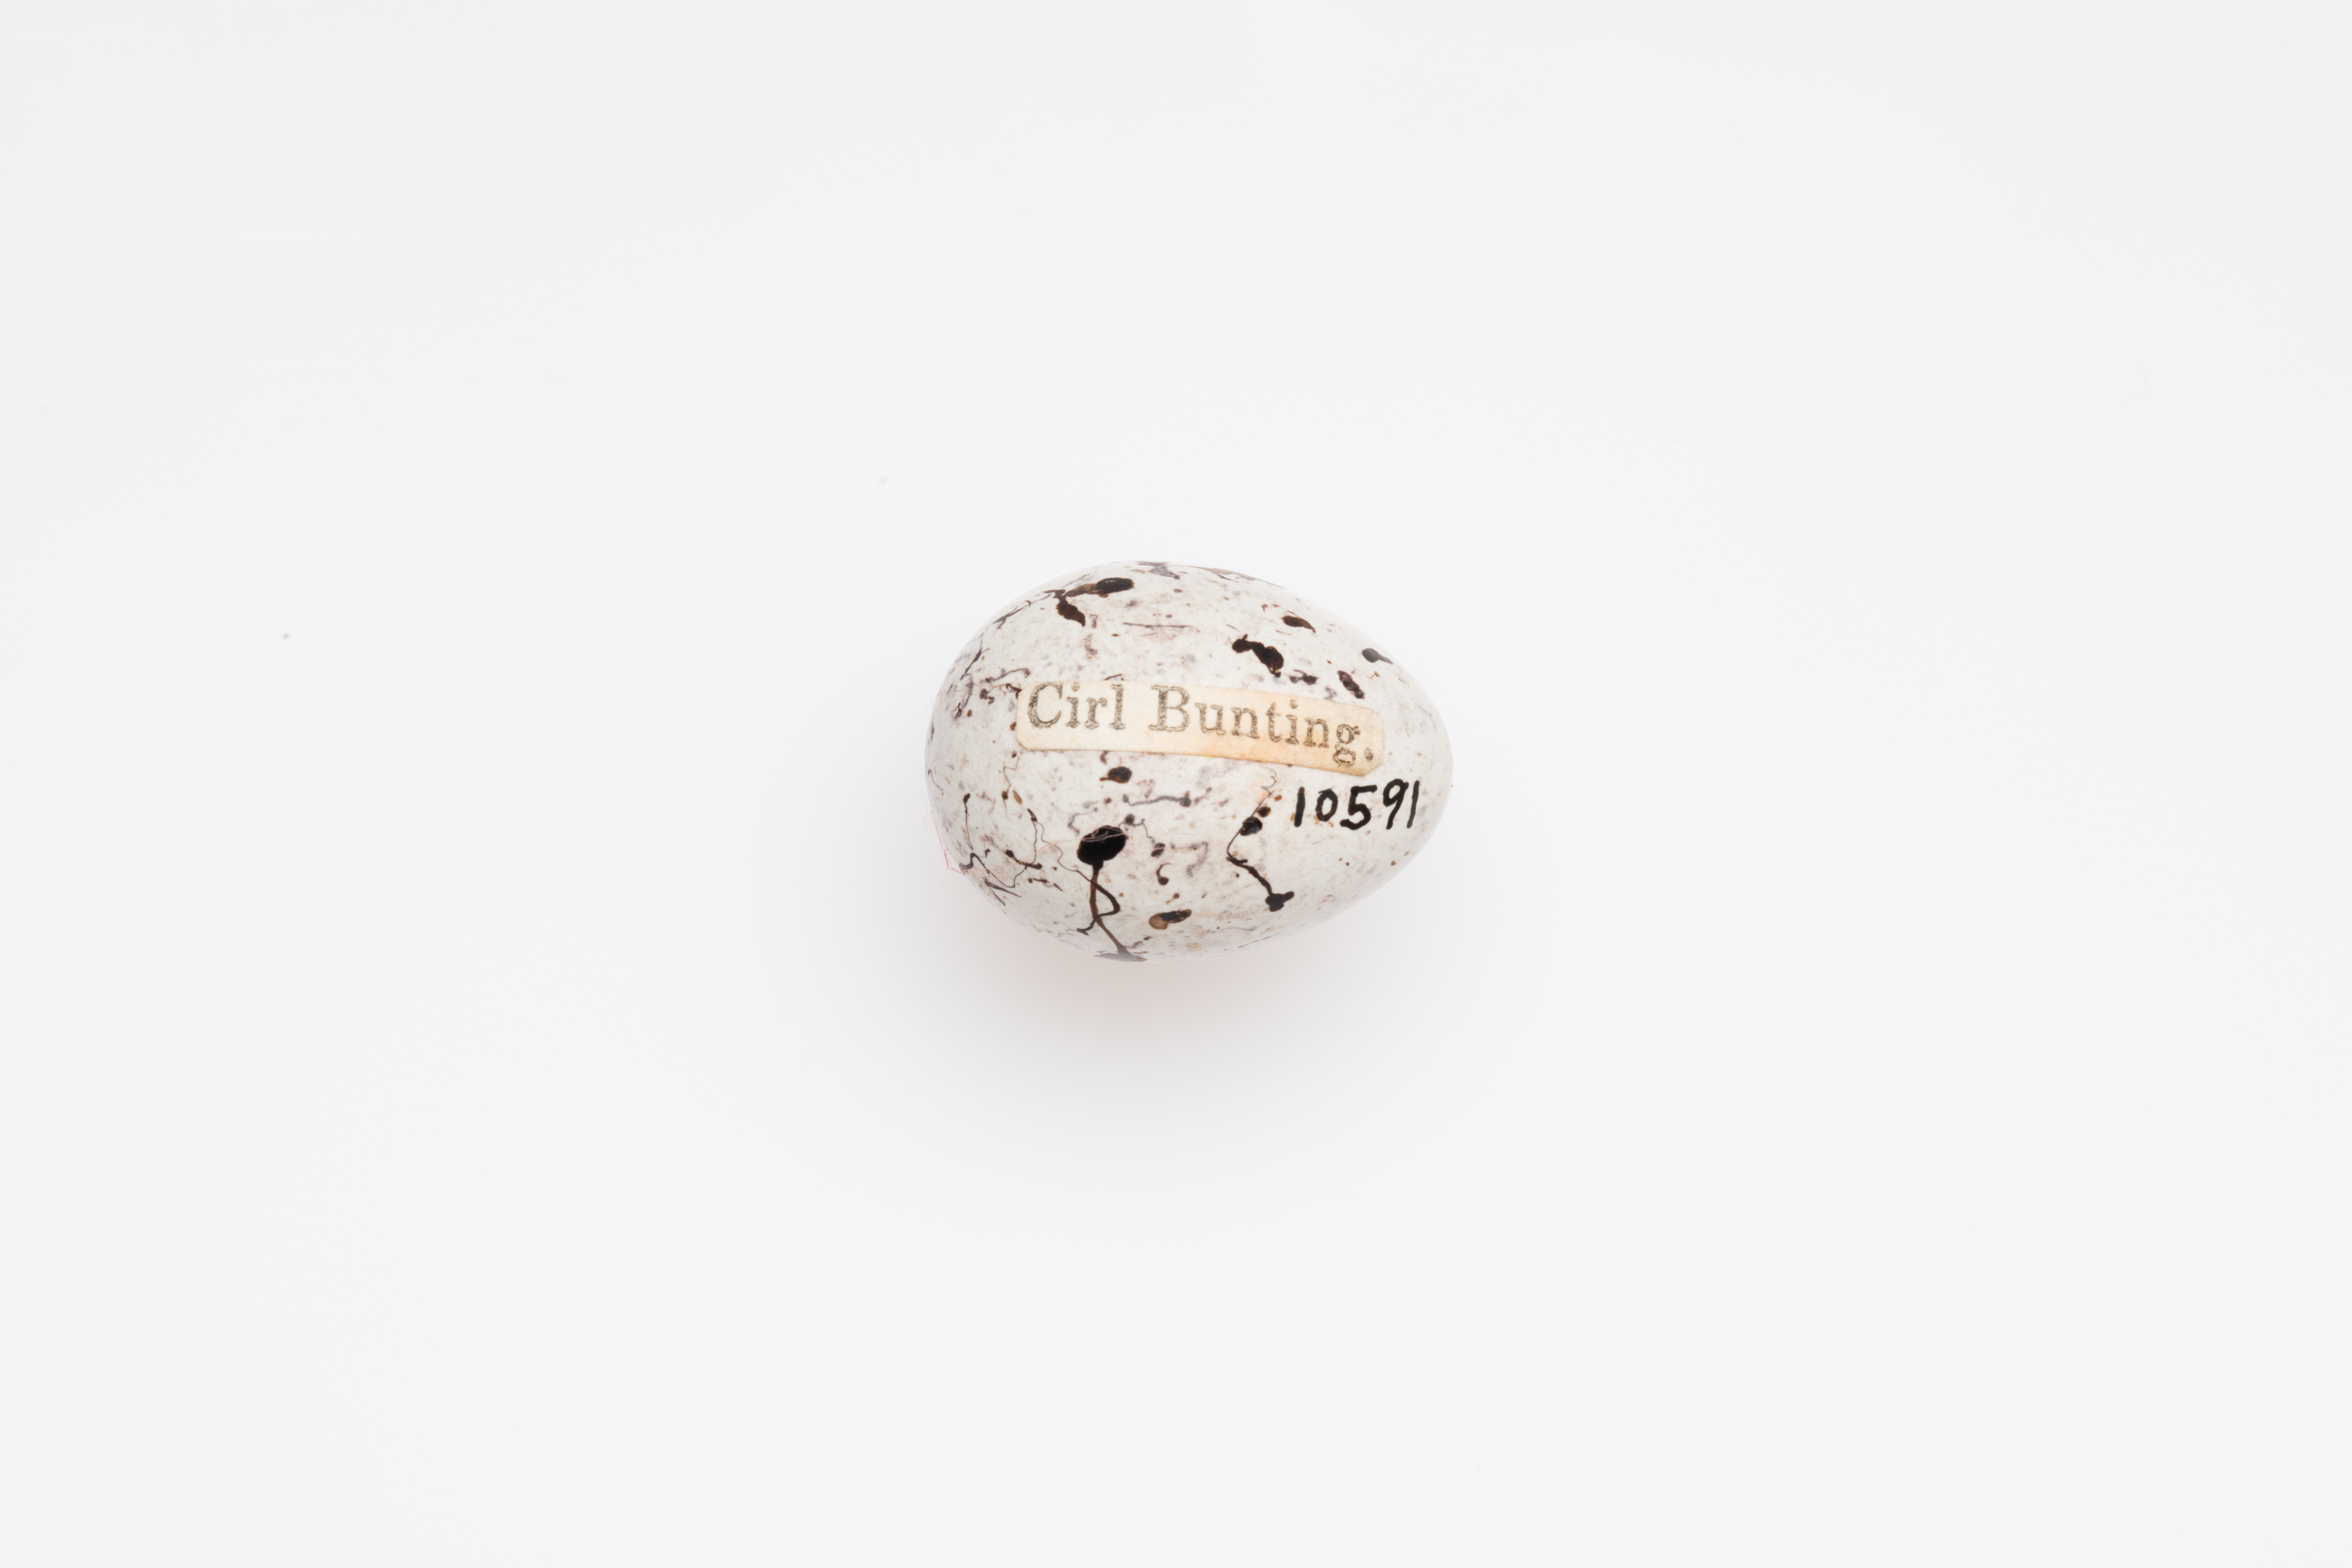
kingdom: Animalia
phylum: Chordata
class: Aves
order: Passeriformes
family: Emberizidae
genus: Emberiza
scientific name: Emberiza cirlus
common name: Cirl bunting
